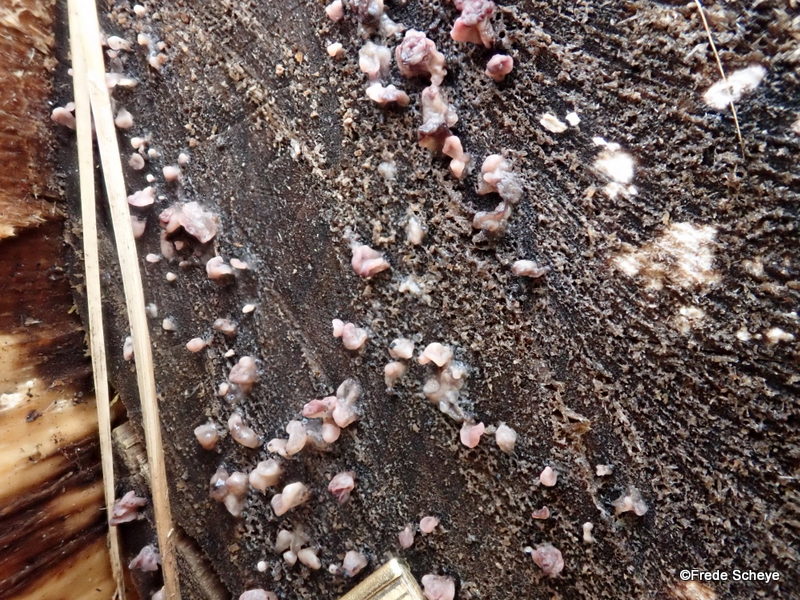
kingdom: Fungi
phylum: Ascomycota
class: Leotiomycetes
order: Helotiales
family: Gelatinodiscaceae
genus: Ascocoryne
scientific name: Ascocoryne sarcoides
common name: rødlilla sejskive
